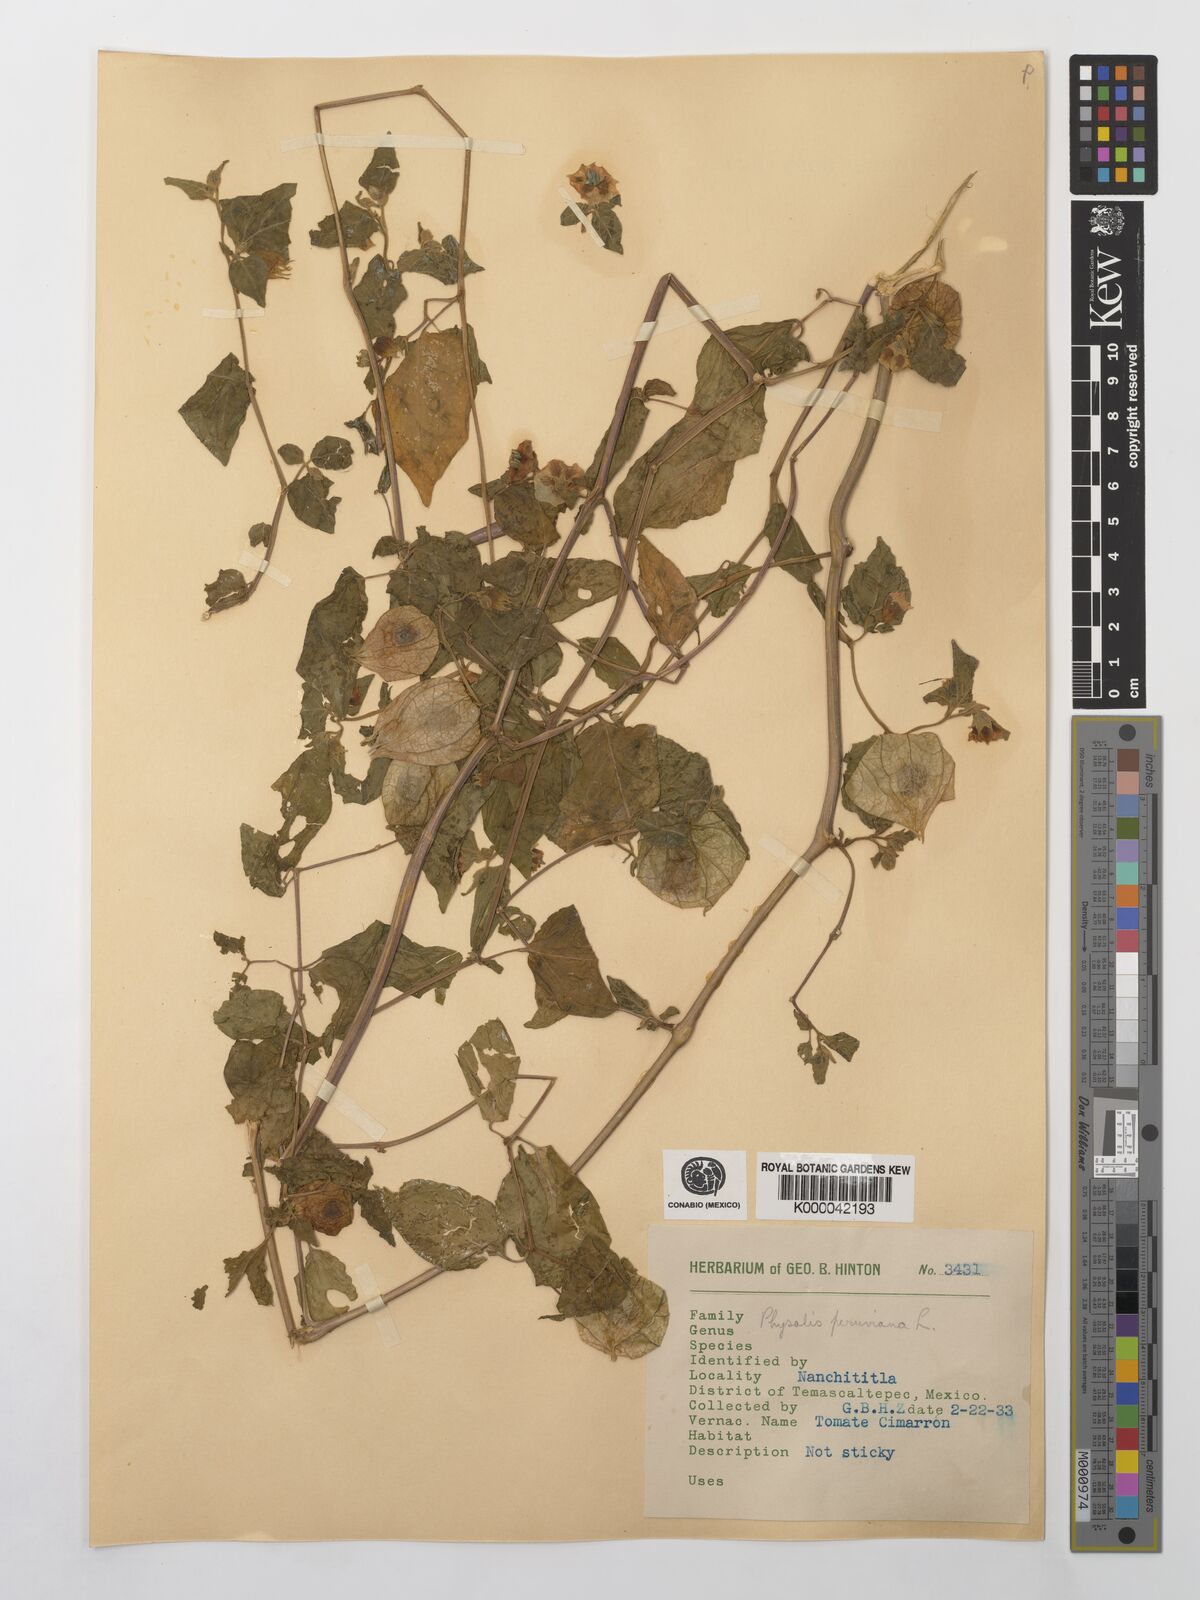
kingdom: Plantae
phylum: Tracheophyta
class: Magnoliopsida
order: Solanales
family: Solanaceae
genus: Physalis
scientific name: Physalis peruviana
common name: Cape-gooseberry
